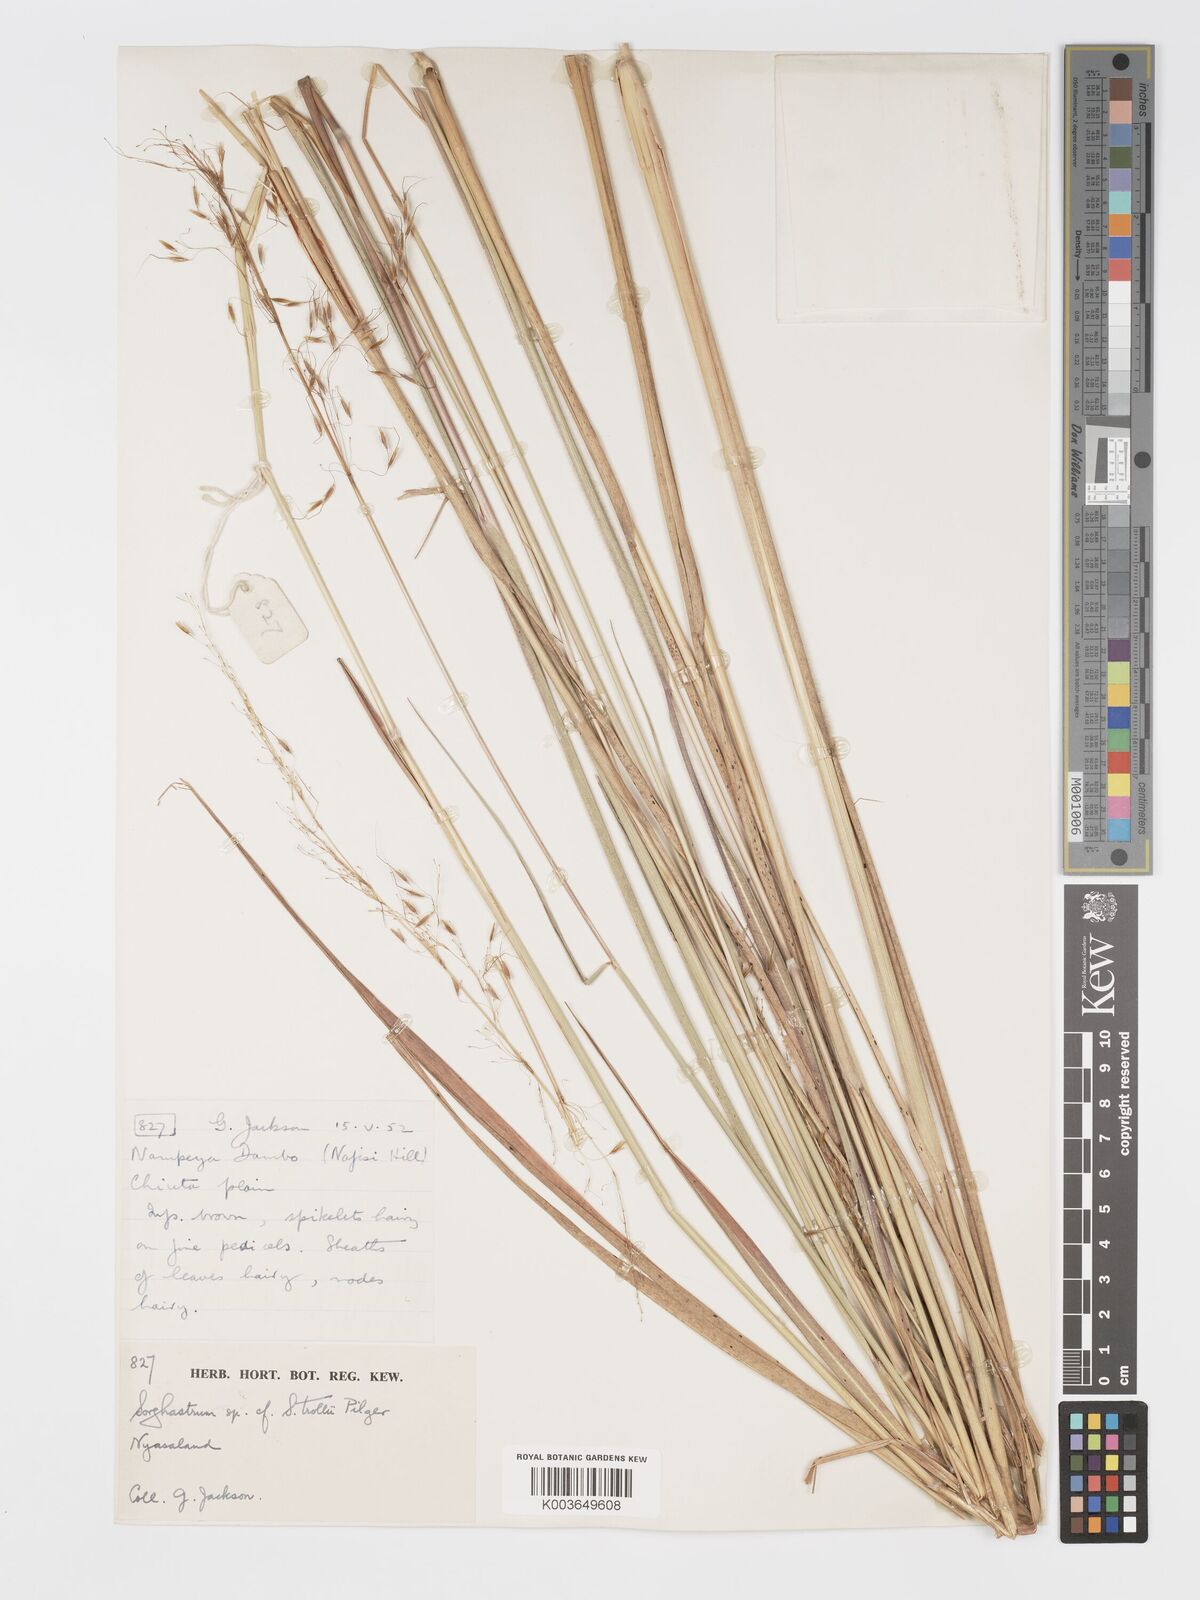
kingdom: Plantae
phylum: Tracheophyta
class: Liliopsida
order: Poales
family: Poaceae
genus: Sorghastrum
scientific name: Sorghastrum stipoides
